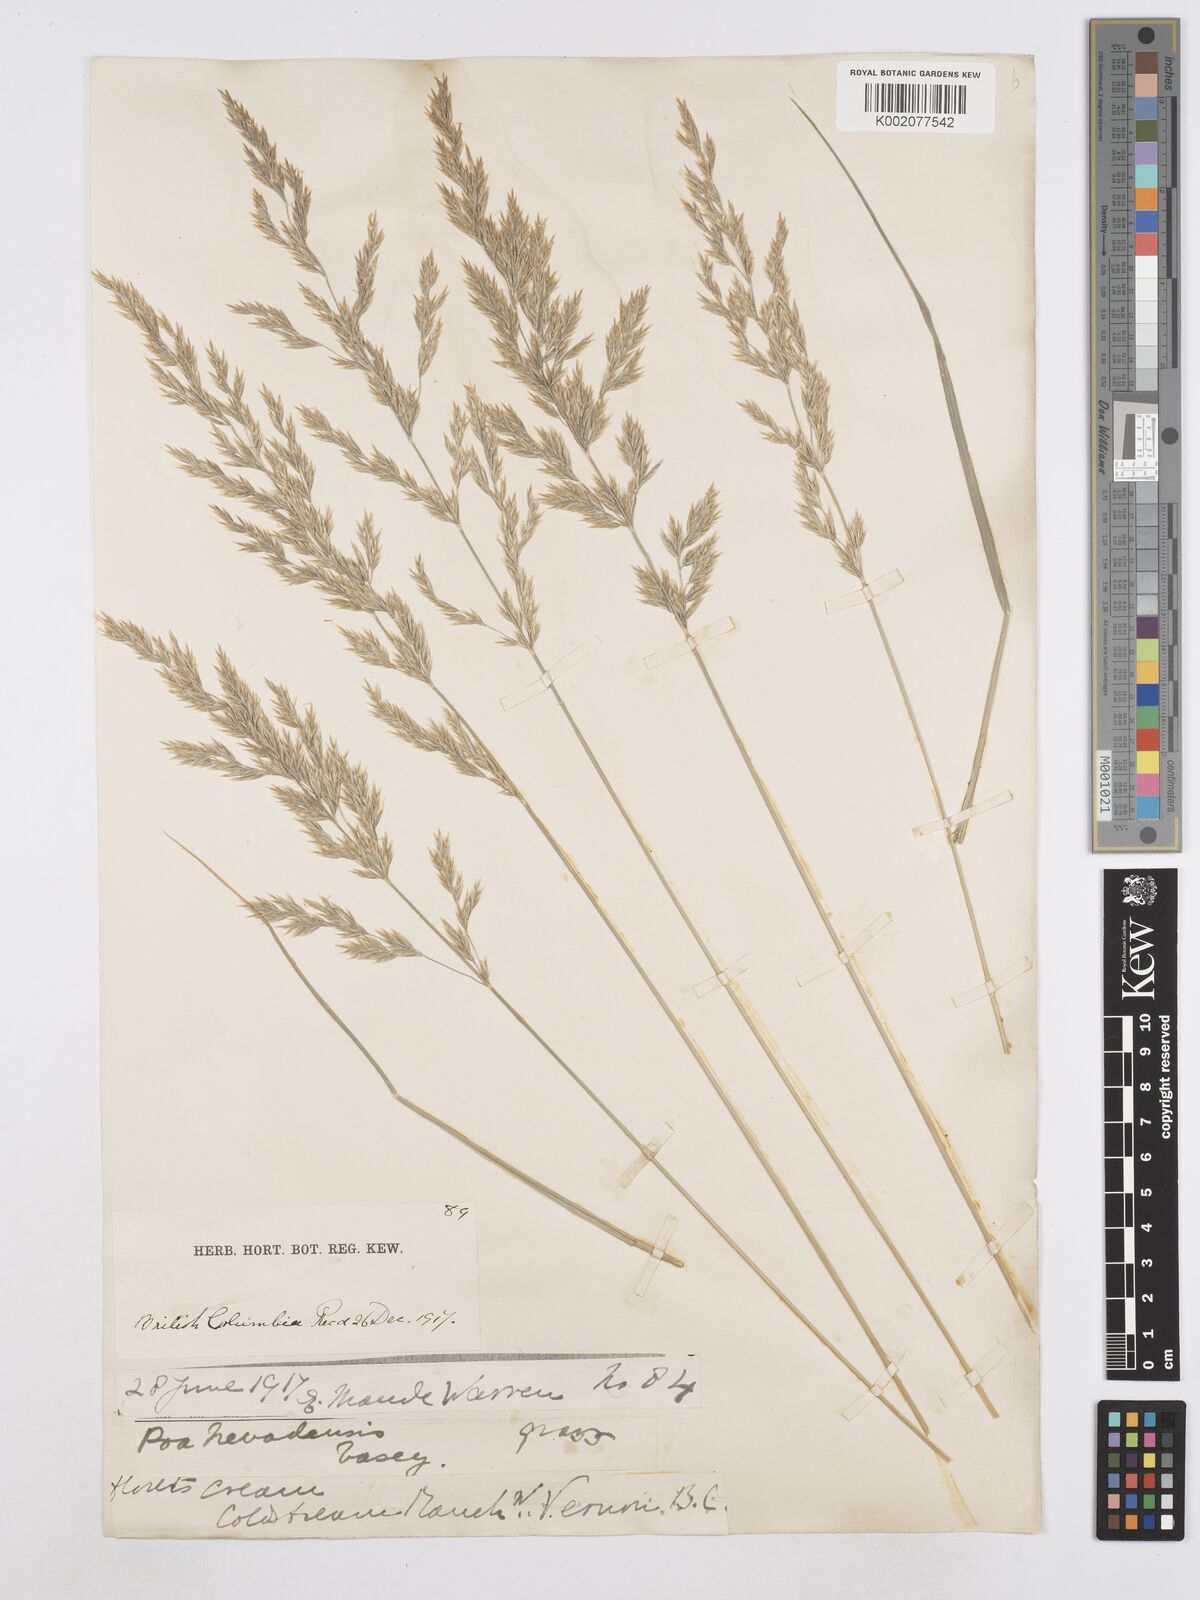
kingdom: Plantae
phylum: Tracheophyta
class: Liliopsida
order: Poales
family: Poaceae
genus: Poa
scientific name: Poa secunda
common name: Sandberg bluegrass
